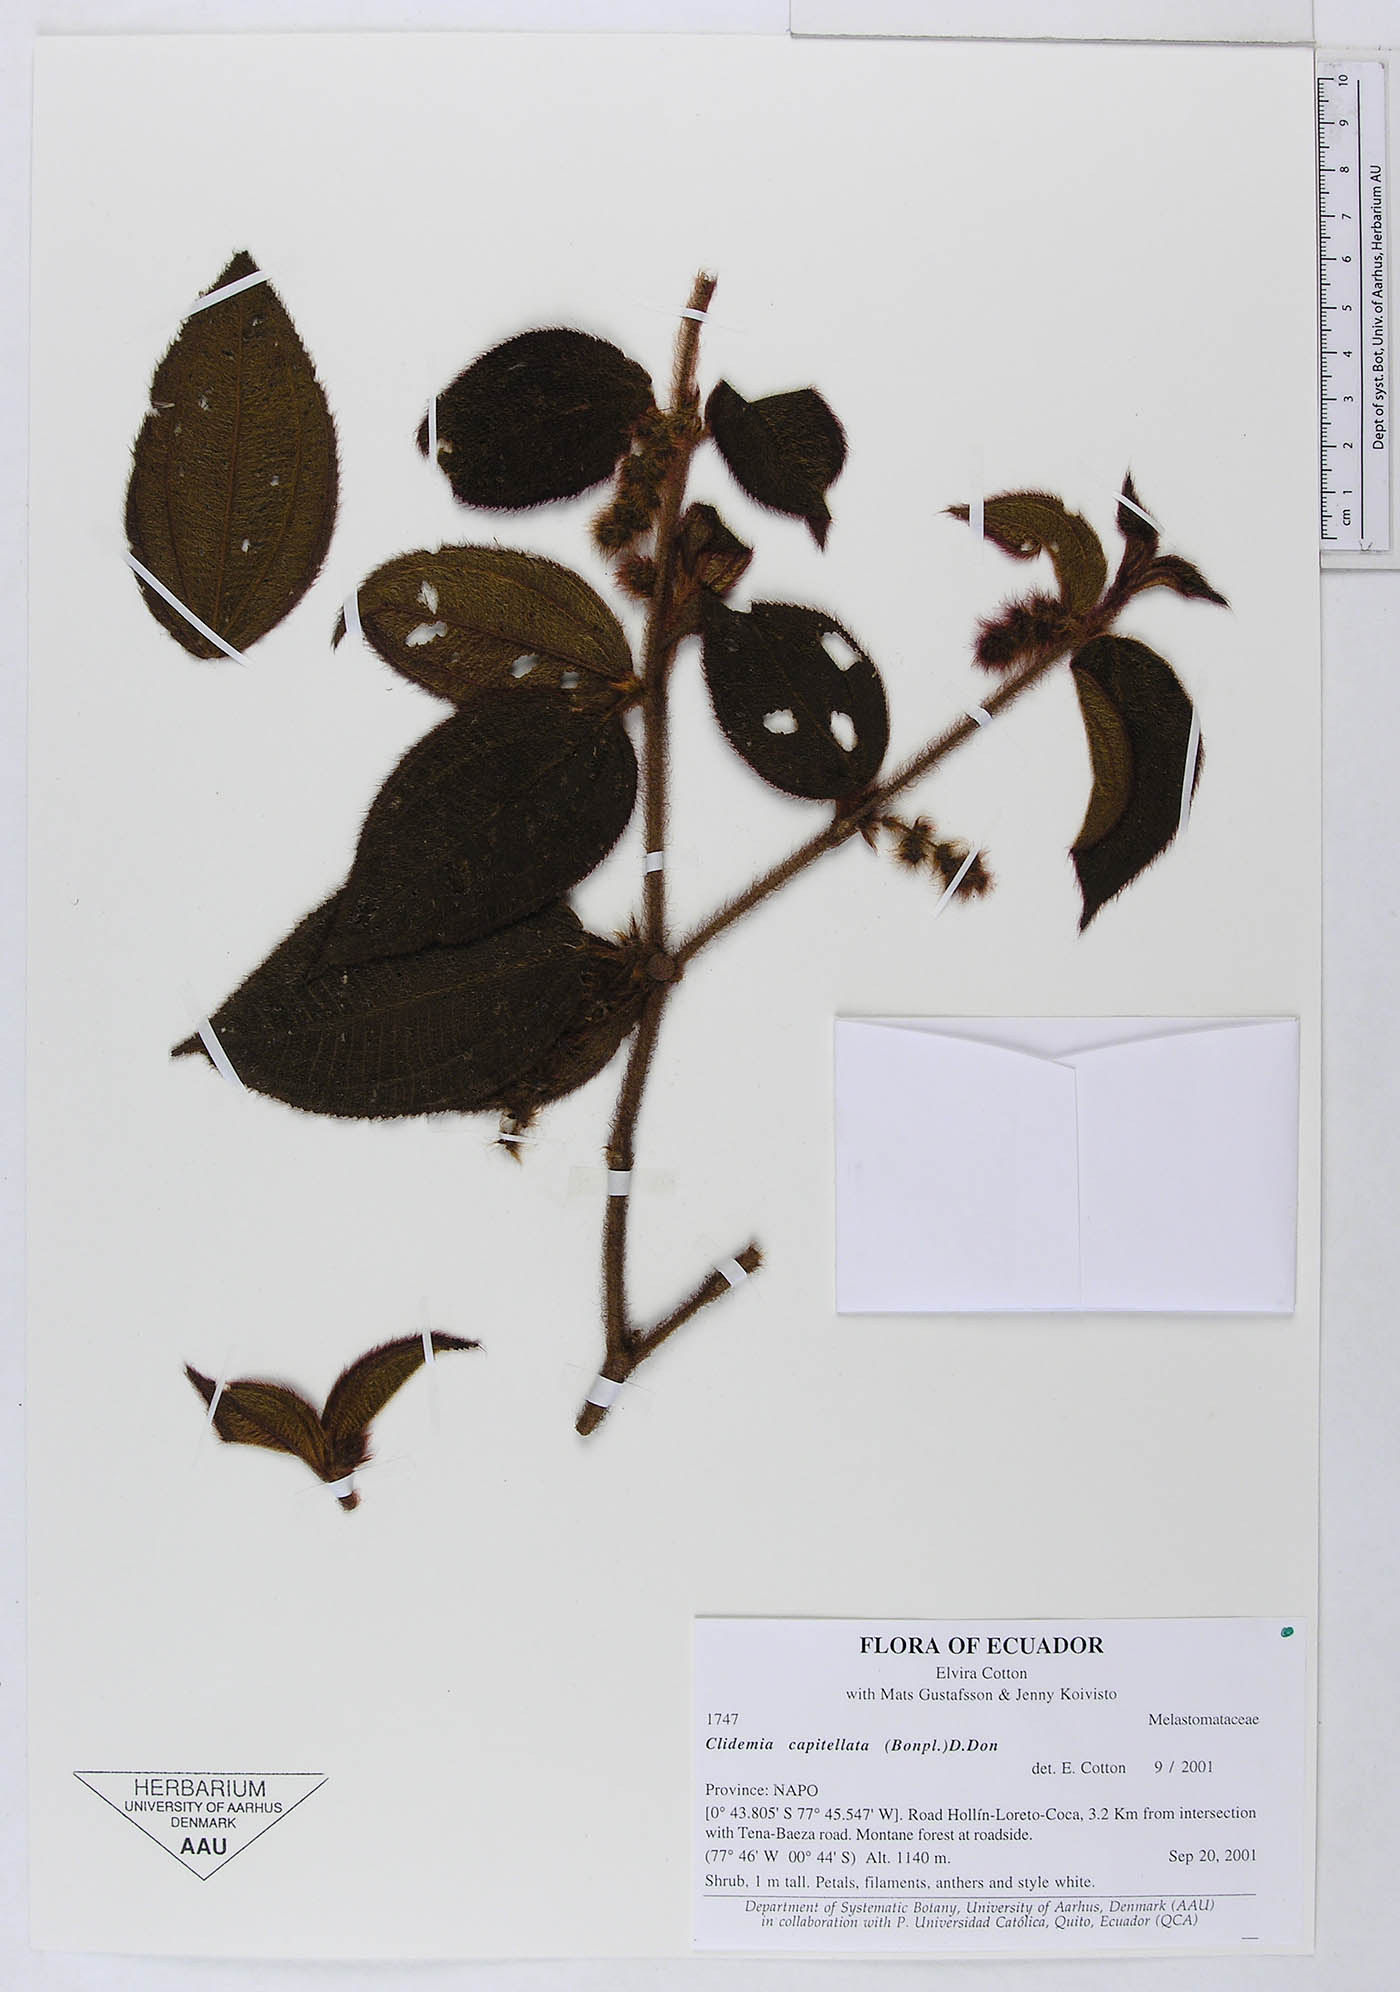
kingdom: Plantae
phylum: Tracheophyta
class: Magnoliopsida
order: Myrtales
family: Melastomataceae
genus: Miconia
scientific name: Miconia dependens
